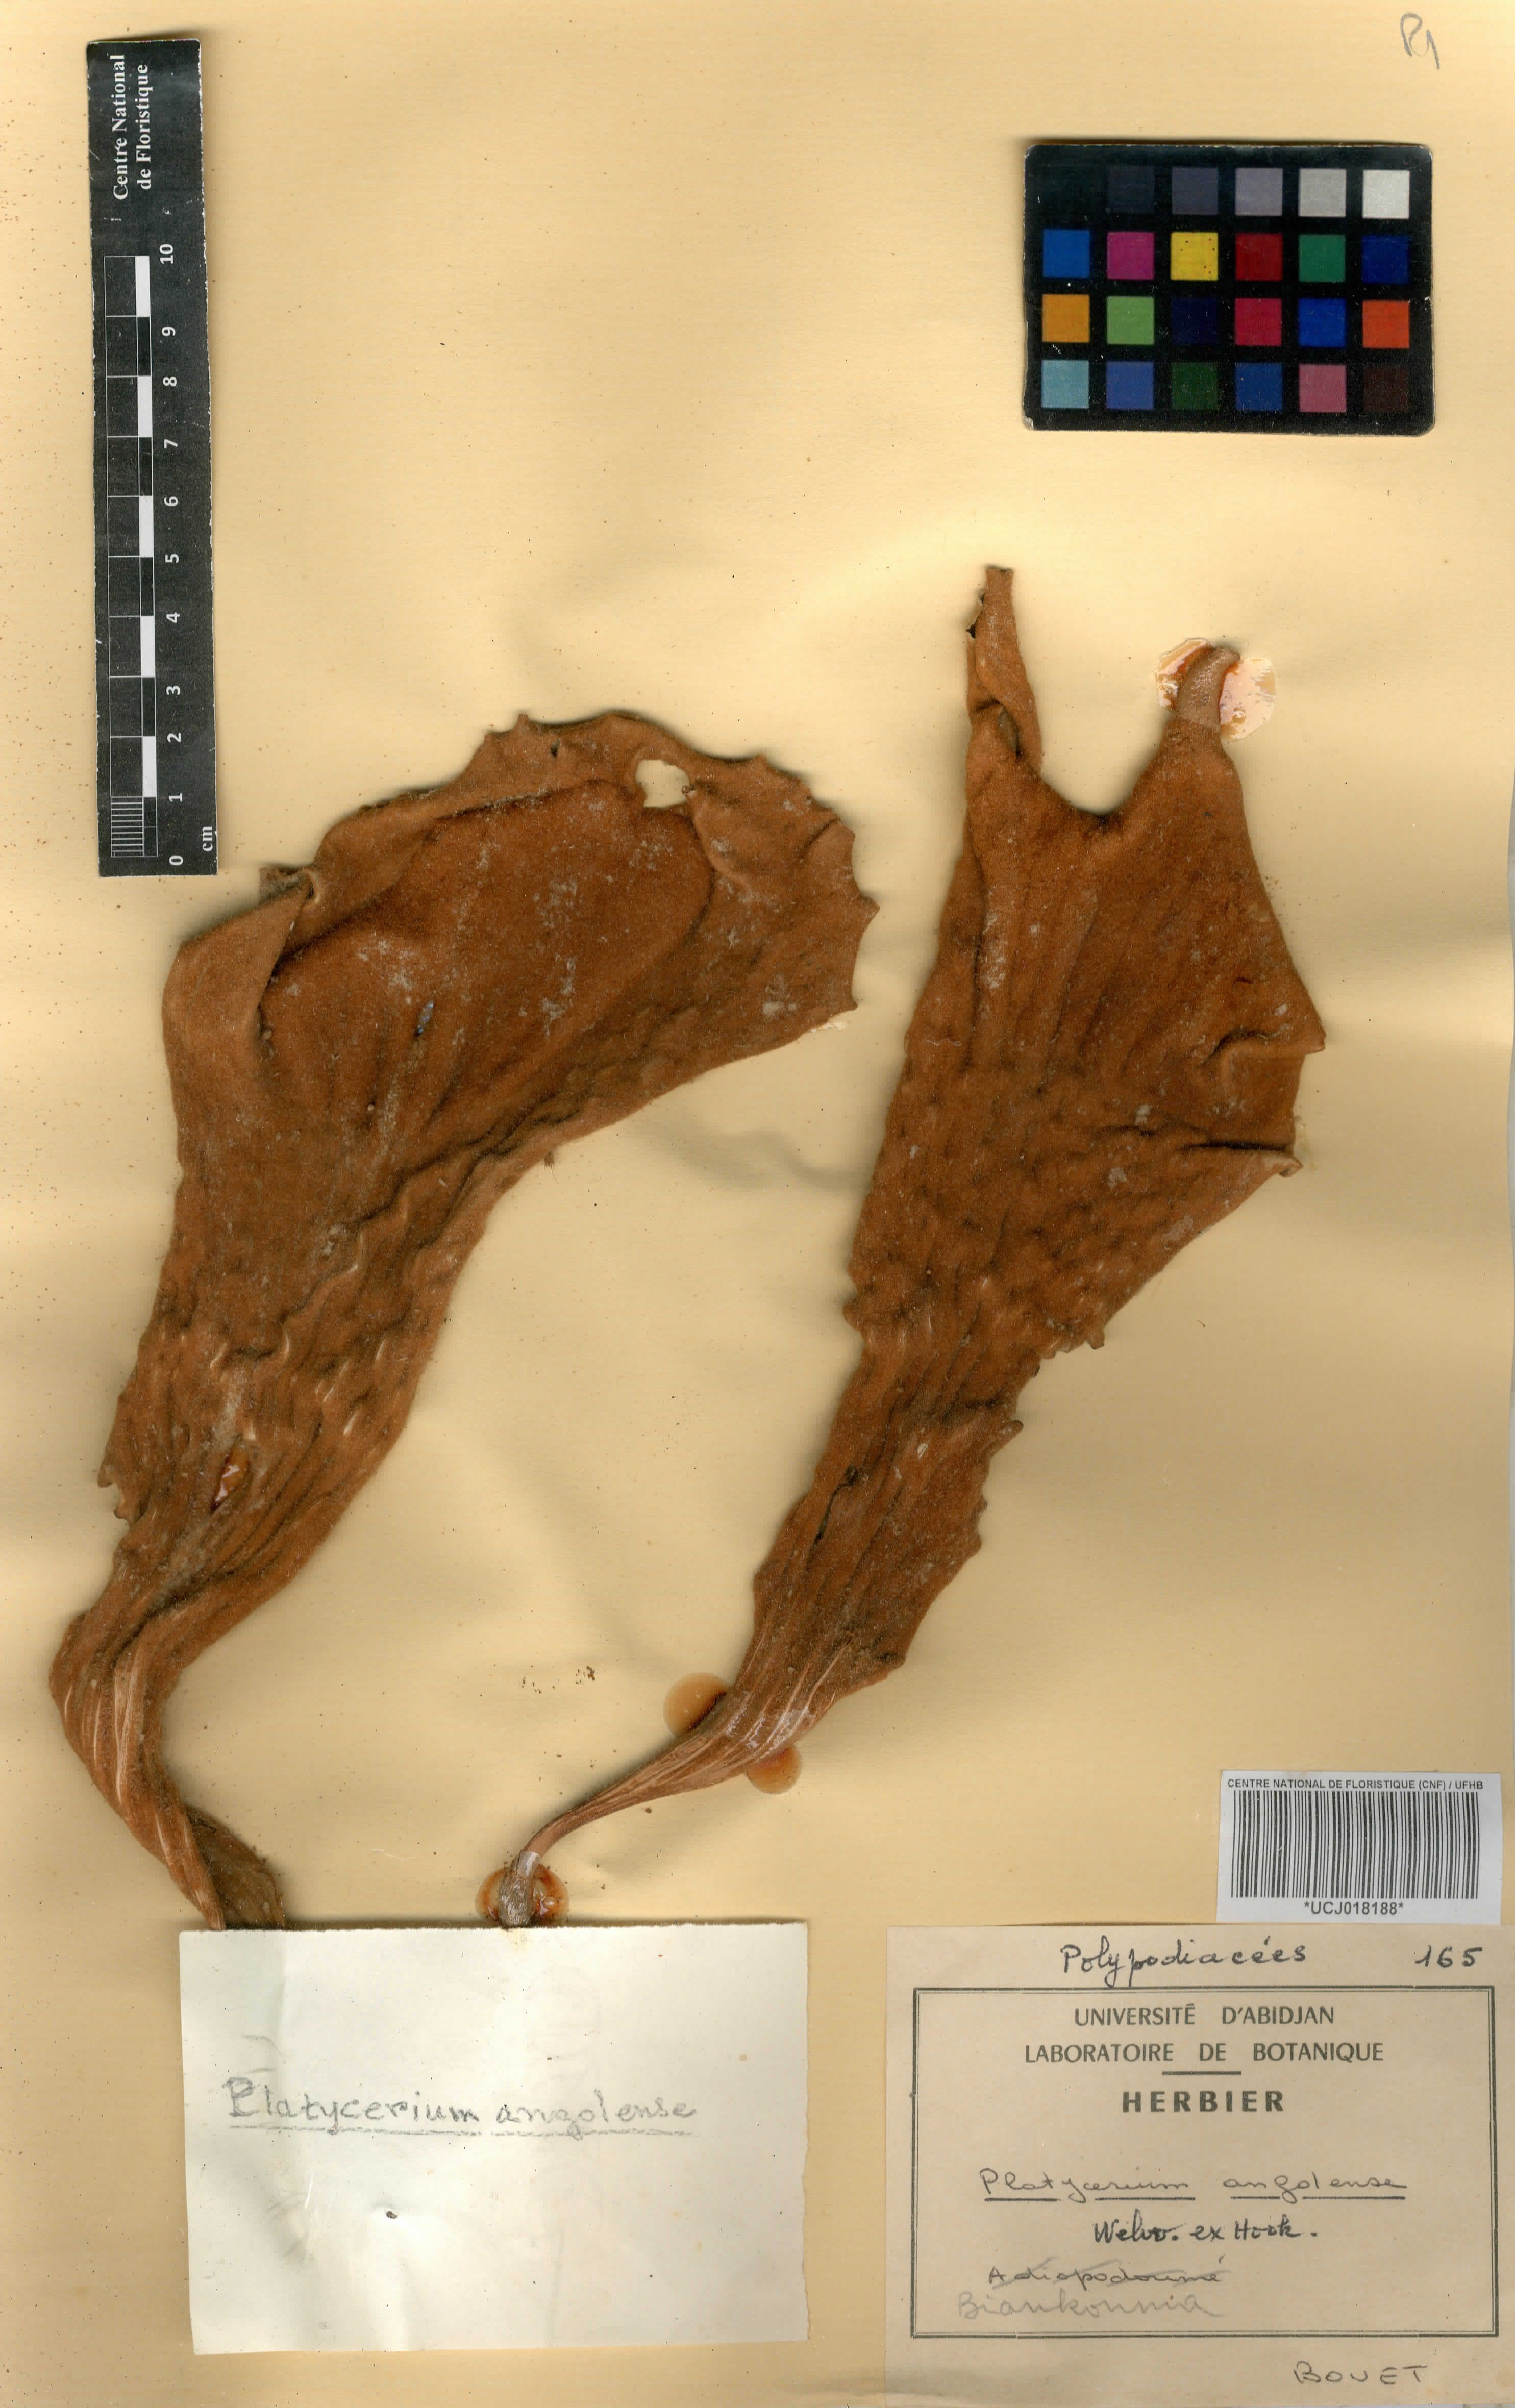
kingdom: Plantae
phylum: Tracheophyta
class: Polypodiopsida
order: Polypodiales
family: Polypodiaceae
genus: Platycerium
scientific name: Platycerium angolense
